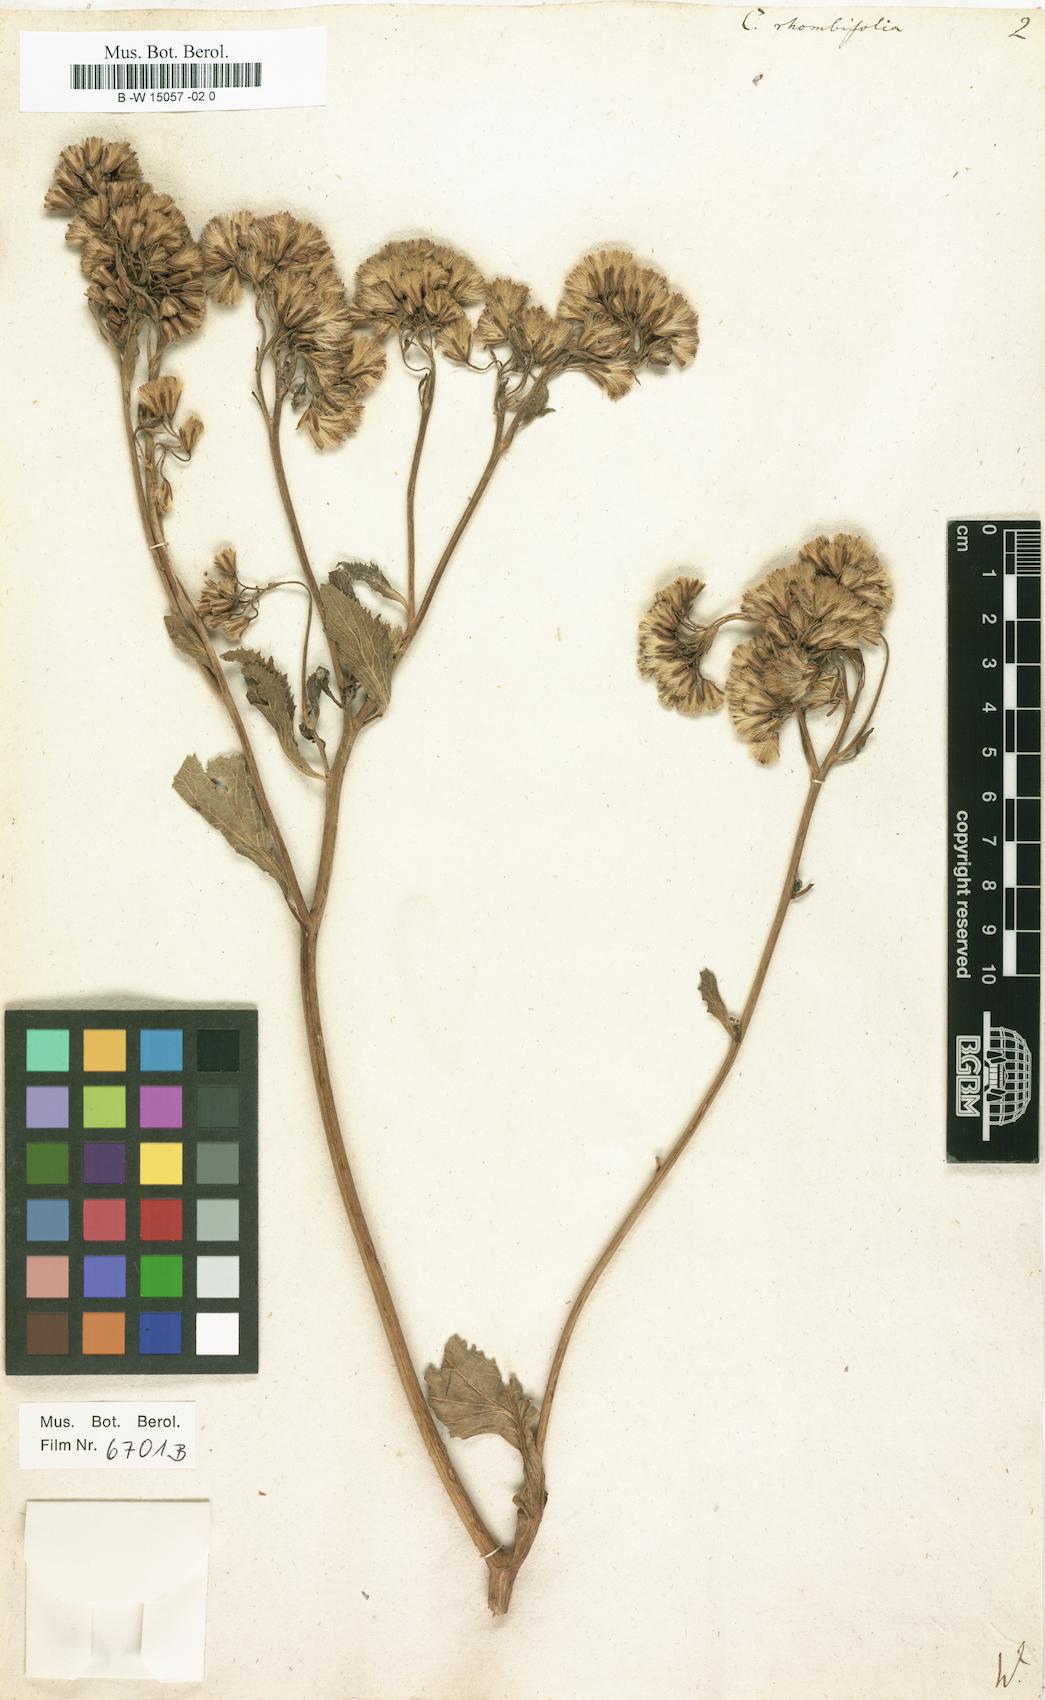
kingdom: Plantae
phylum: Tracheophyta
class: Magnoliopsida
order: Asterales
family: Asteraceae
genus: Caucasalia
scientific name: Caucasalia macrophylla
